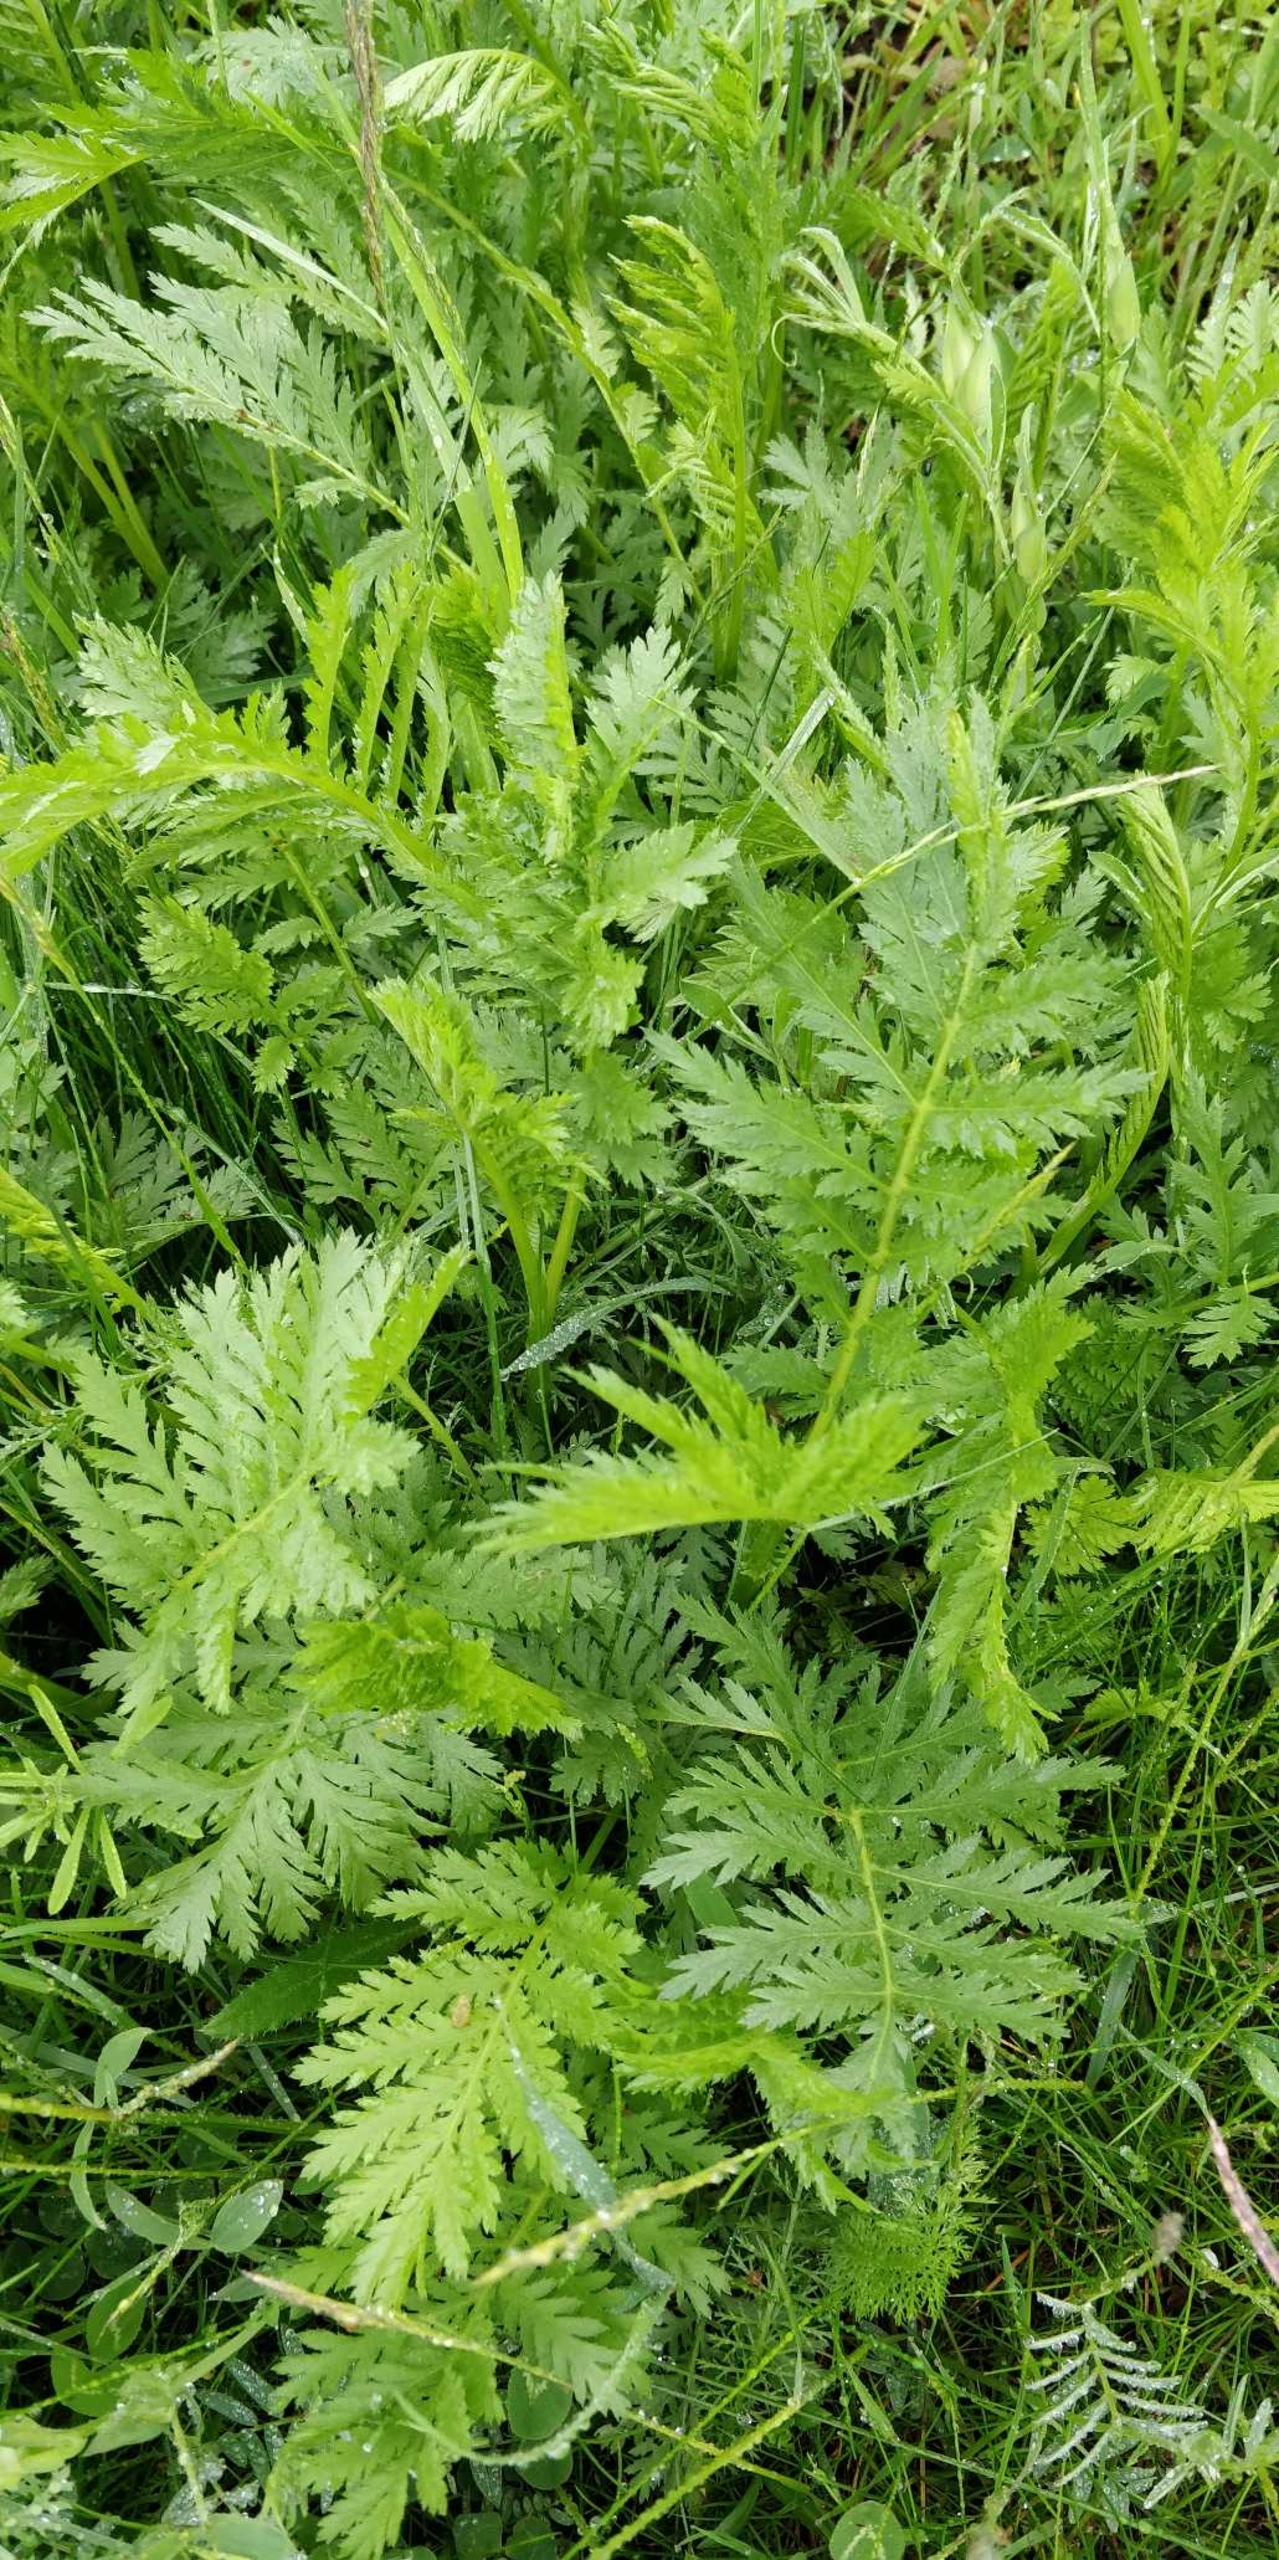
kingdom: Plantae
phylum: Tracheophyta
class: Magnoliopsida
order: Asterales
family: Asteraceae
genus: Tanacetum
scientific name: Tanacetum vulgare
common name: Rejnfan
